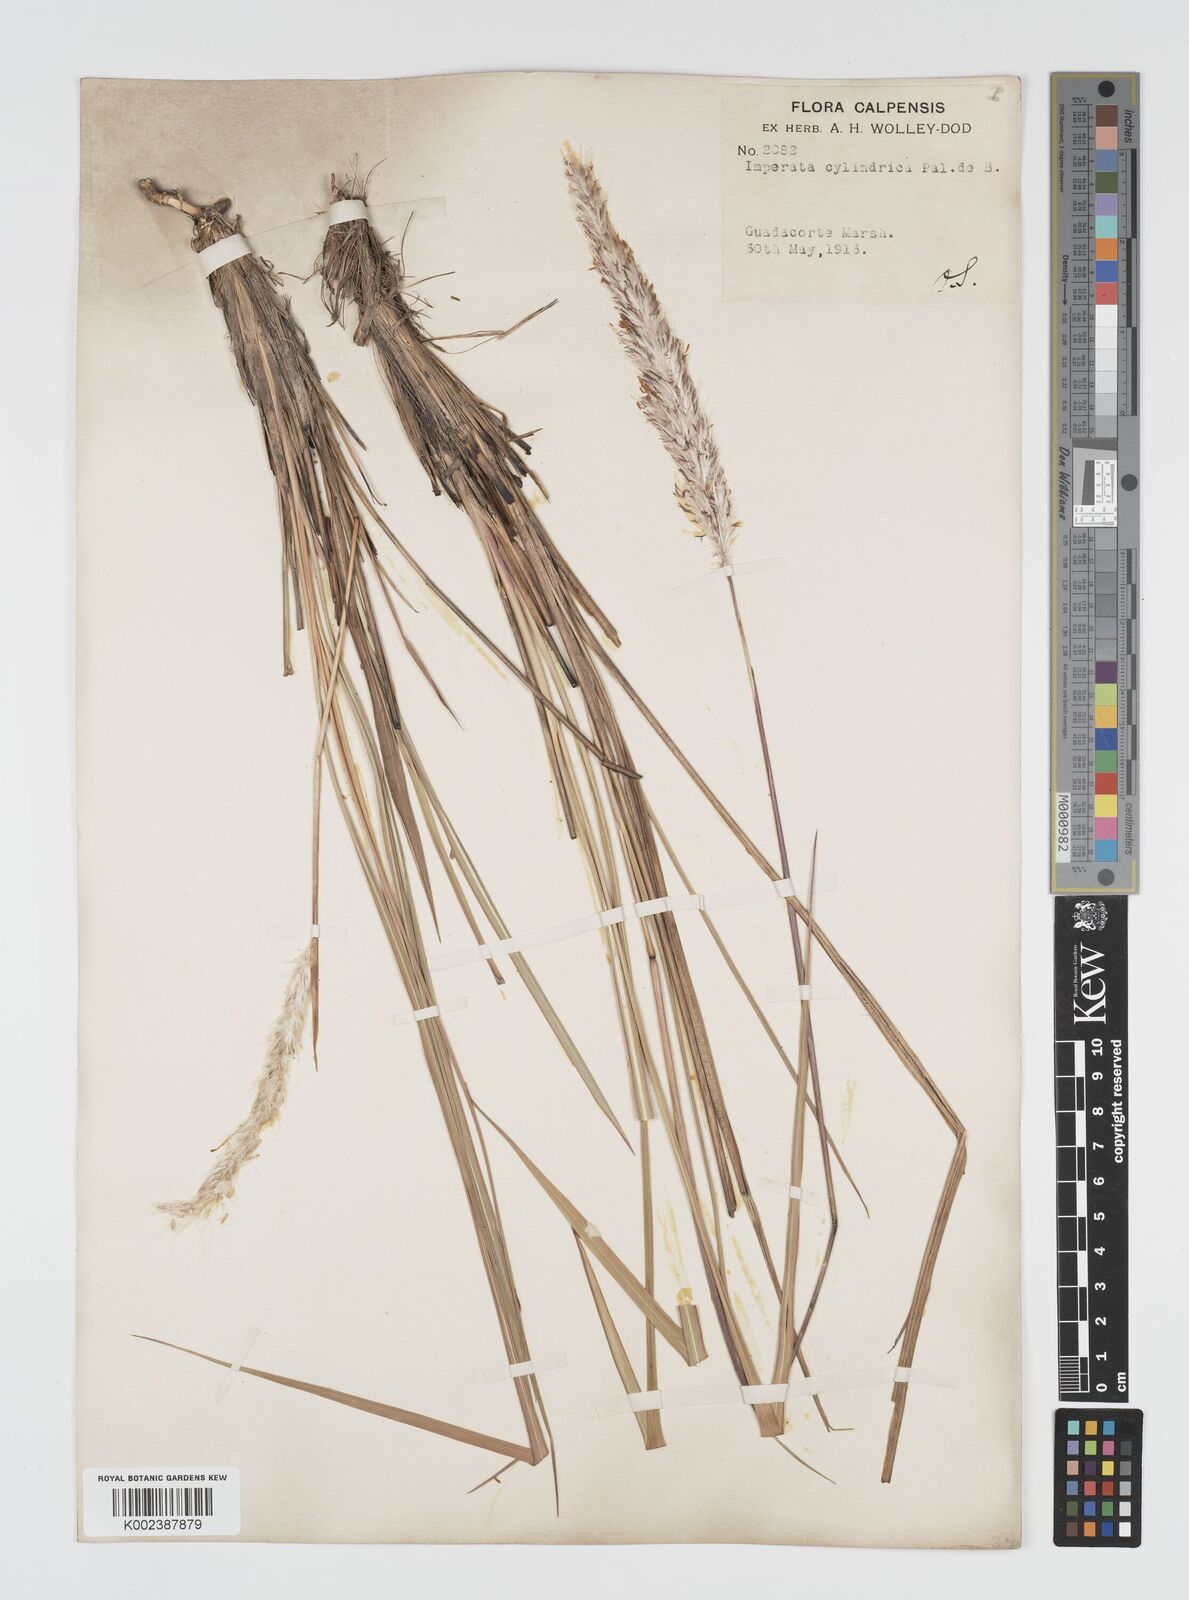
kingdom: Plantae
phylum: Tracheophyta
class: Liliopsida
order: Poales
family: Poaceae
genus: Imperata
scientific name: Imperata cylindrica
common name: Cogongrass
